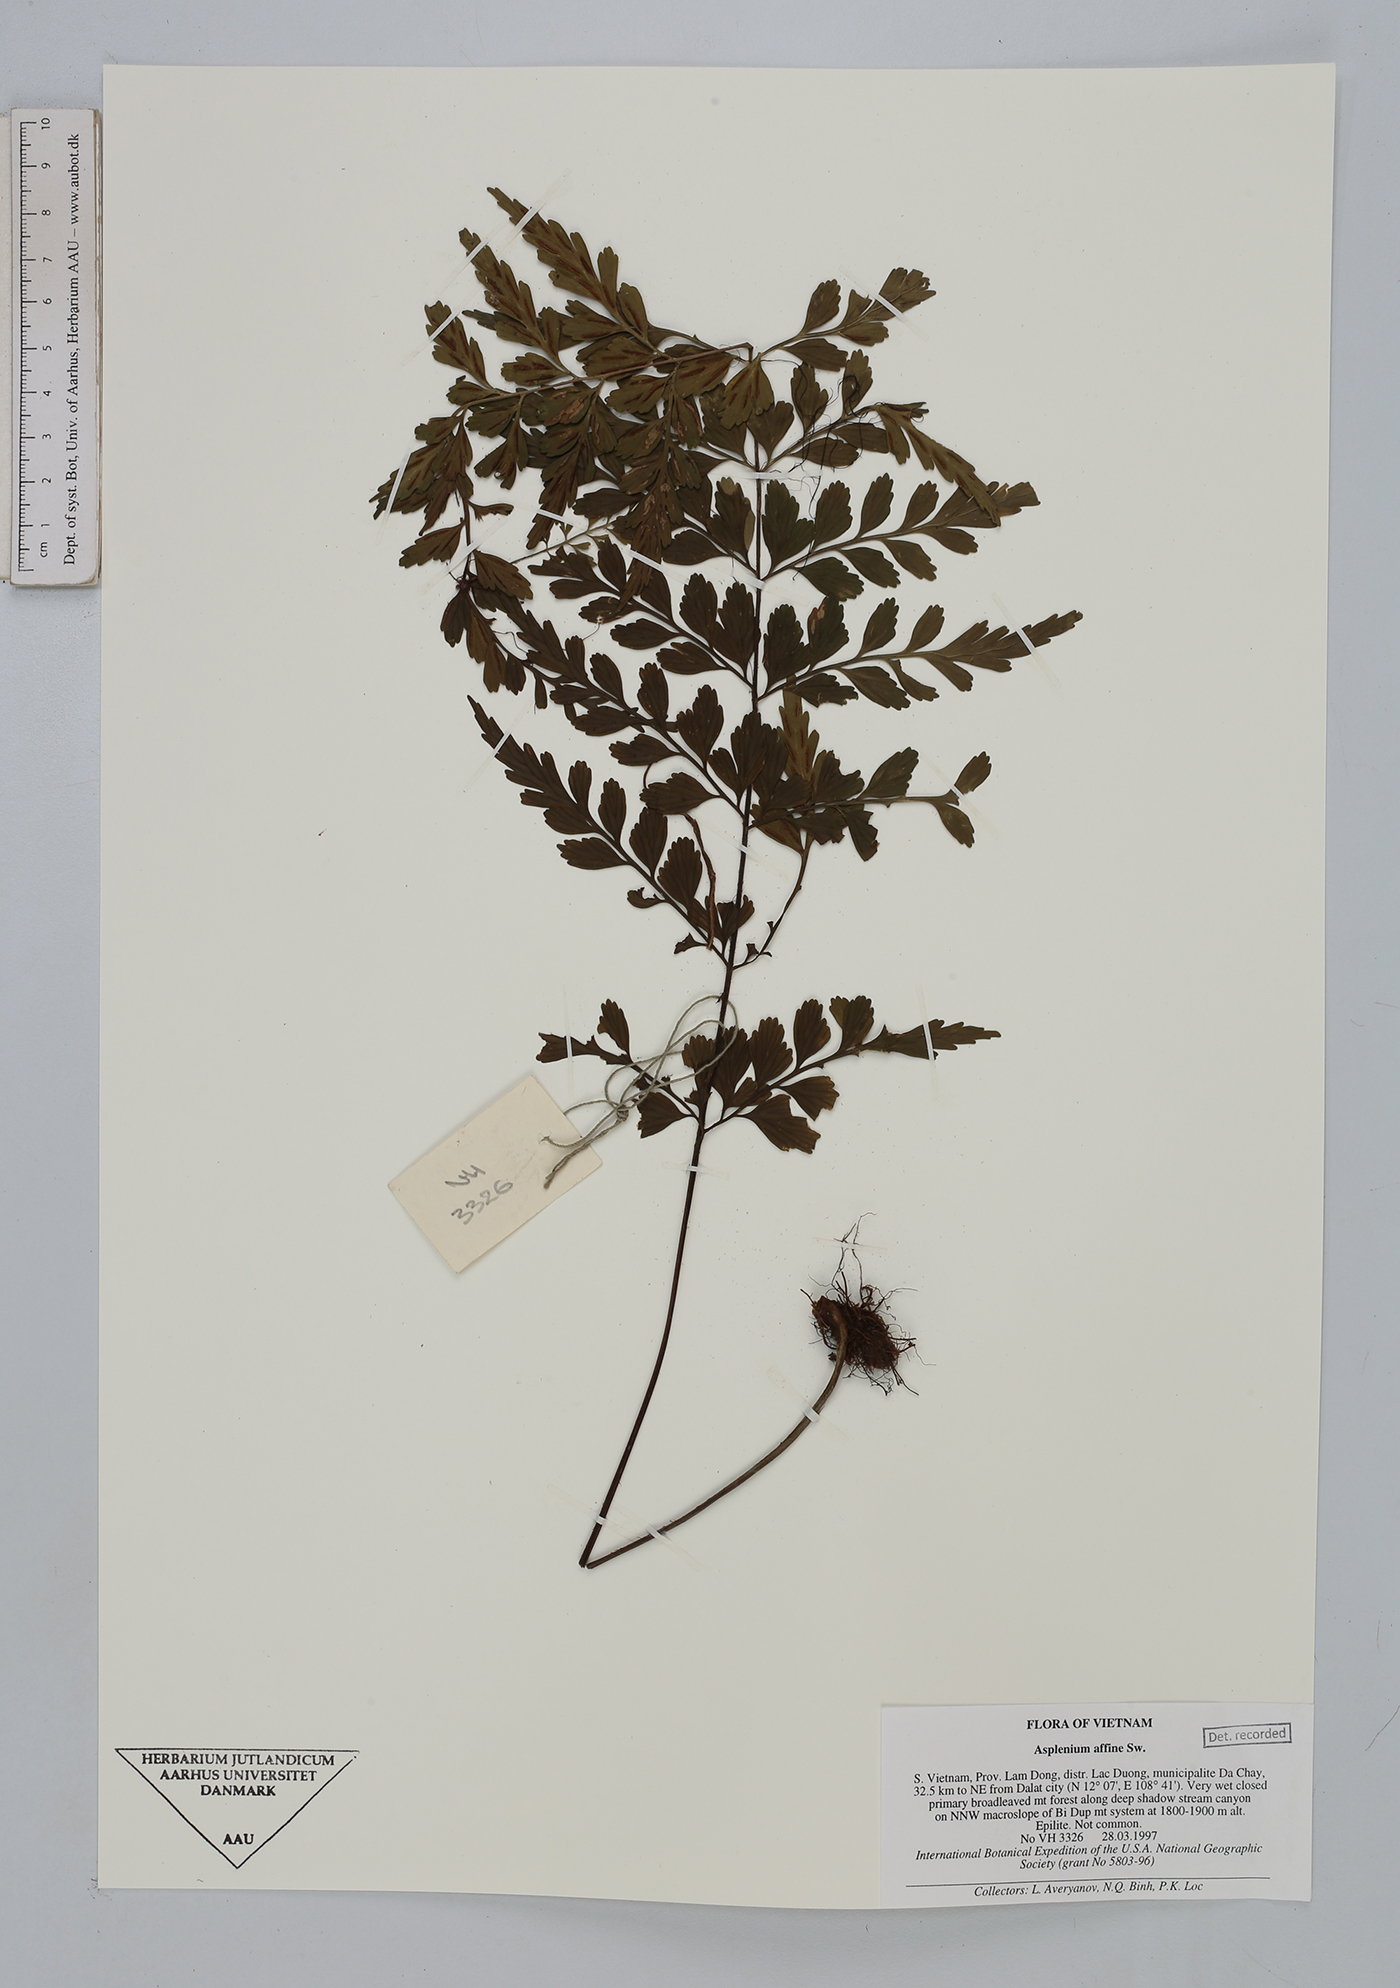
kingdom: Plantae
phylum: Tracheophyta
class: Polypodiopsida
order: Polypodiales
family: Aspleniaceae
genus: Asplenium
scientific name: Asplenium affine
